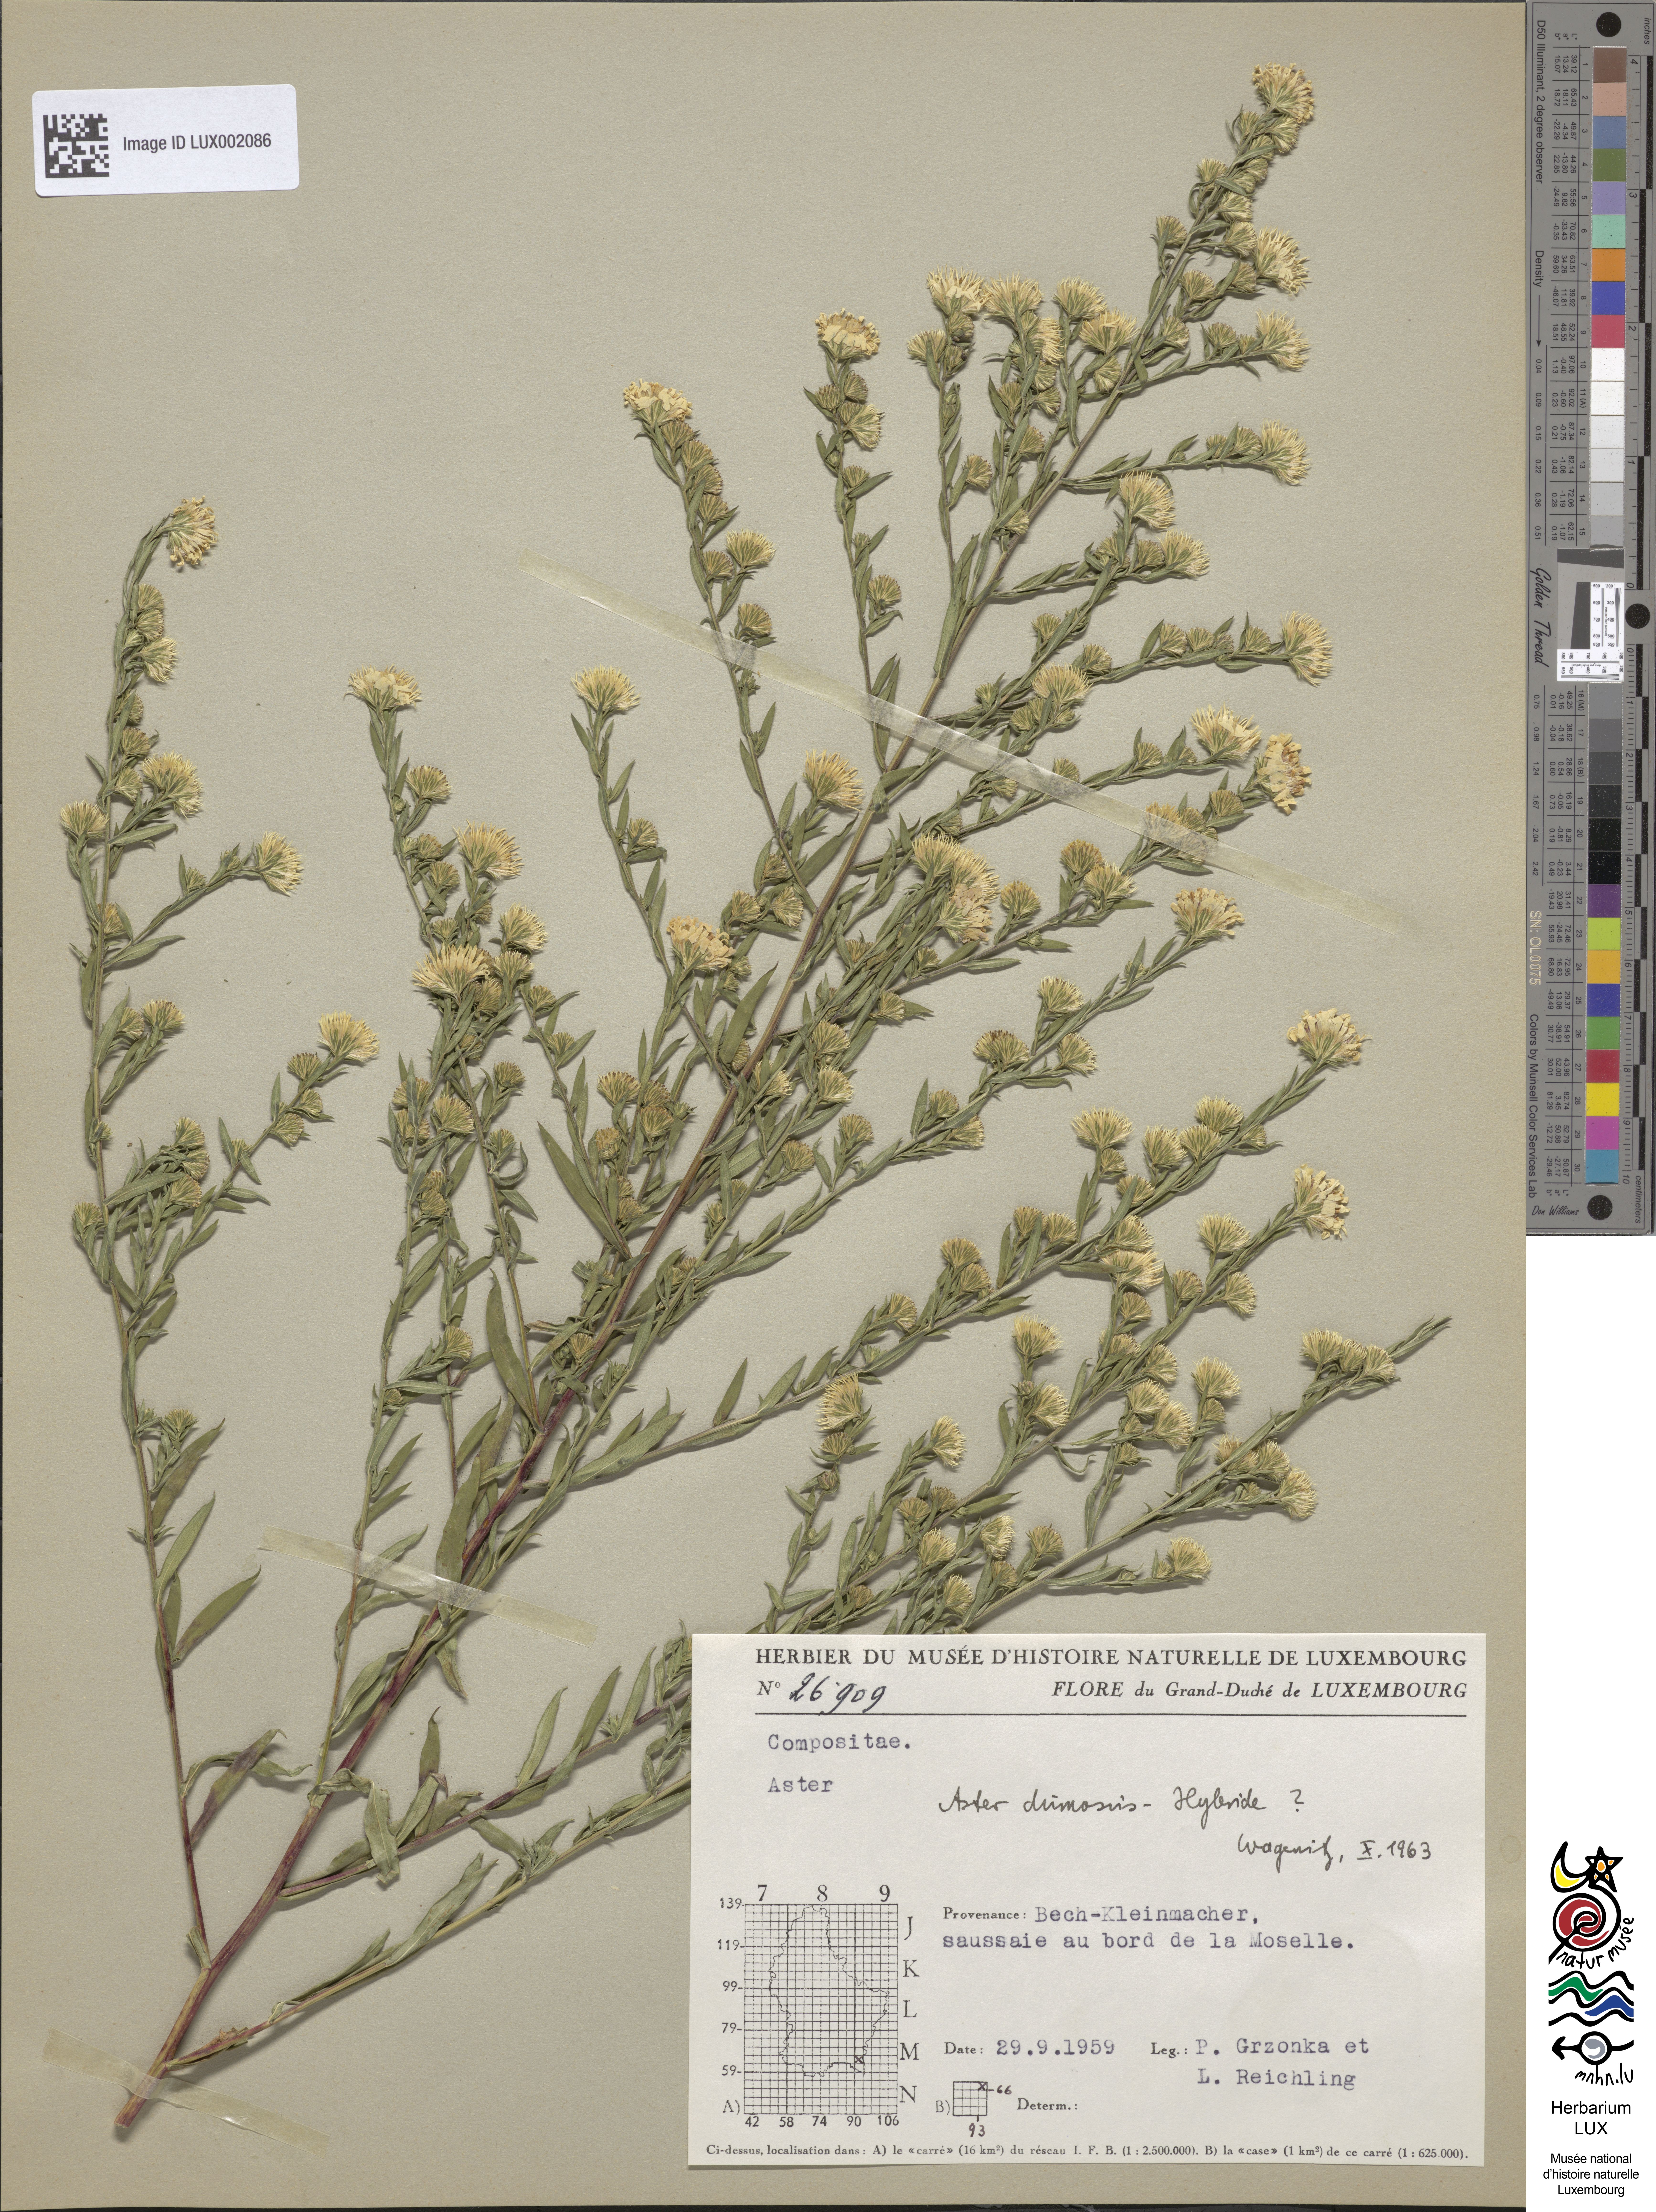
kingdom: Plantae
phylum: Tracheophyta
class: Magnoliopsida
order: Asterales
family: Asteraceae
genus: Symphyotrichum
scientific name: Symphyotrichum dumosum
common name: Bushy aster
